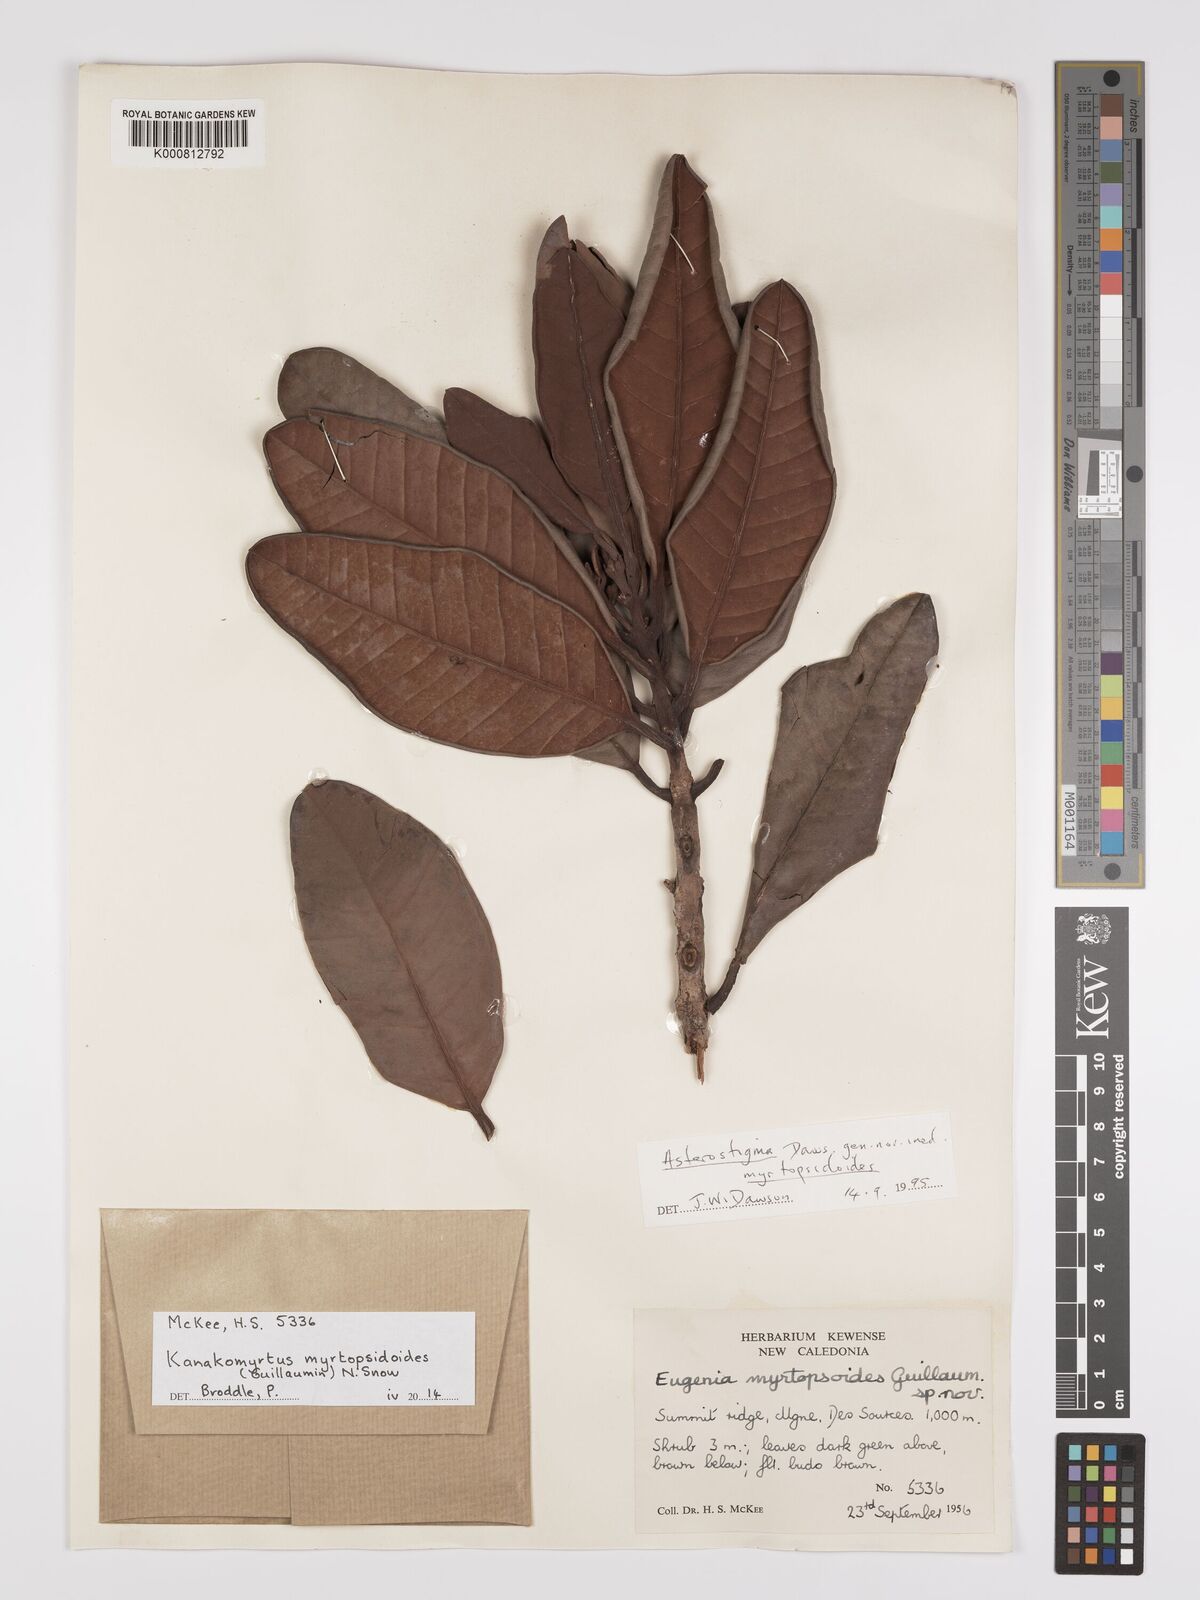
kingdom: Plantae
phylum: Tracheophyta
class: Magnoliopsida
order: Myrtales
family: Myrtaceae
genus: Kanakomyrtus
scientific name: Kanakomyrtus myrtopsidoides
